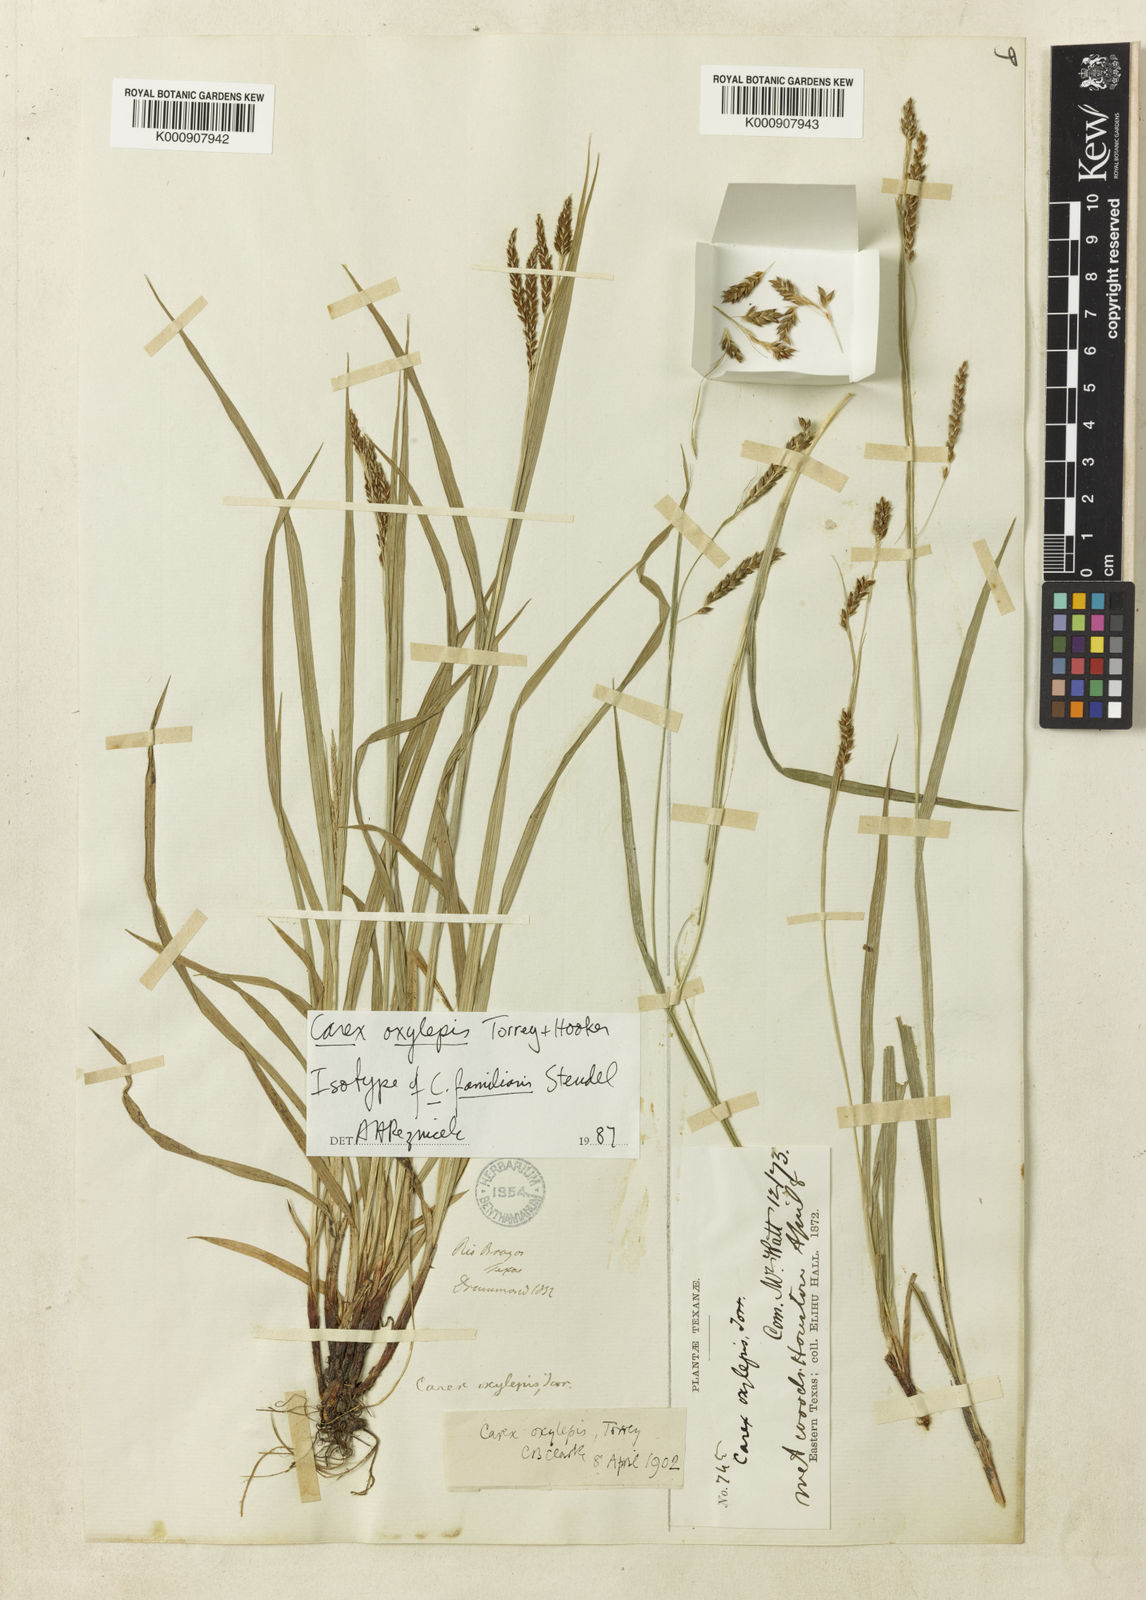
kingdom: Plantae
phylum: Tracheophyta
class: Liliopsida
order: Poales
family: Cyperaceae
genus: Carex
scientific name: Carex oxylepis
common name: Sharpscale sedge
